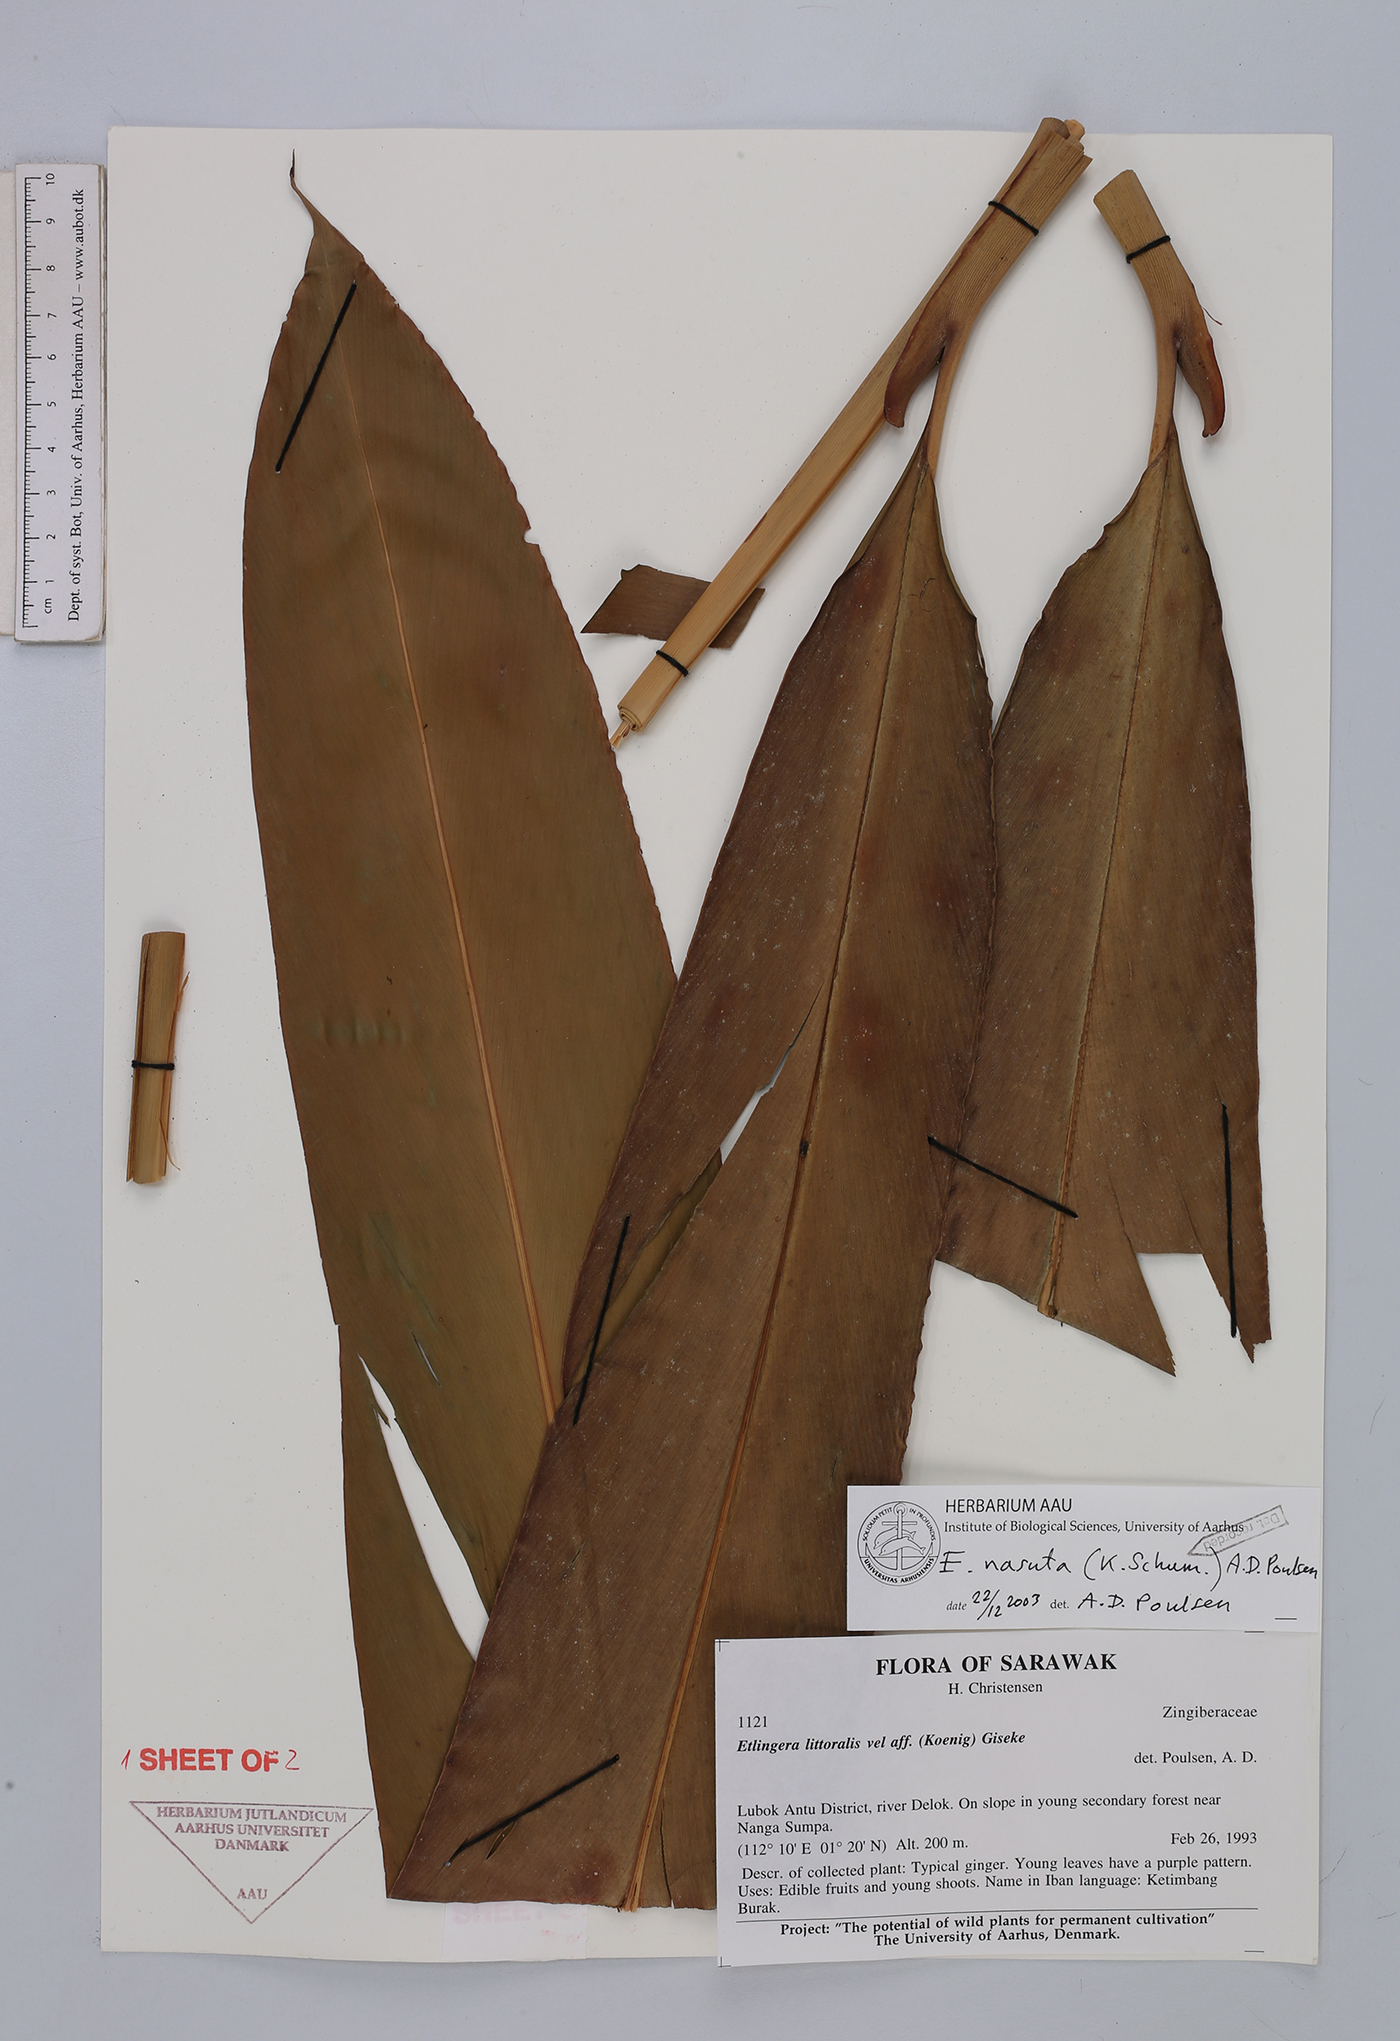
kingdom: Plantae
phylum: Tracheophyta
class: Liliopsida
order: Zingiberales
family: Zingiberaceae
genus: Etlingera
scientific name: Etlingera nasuta
